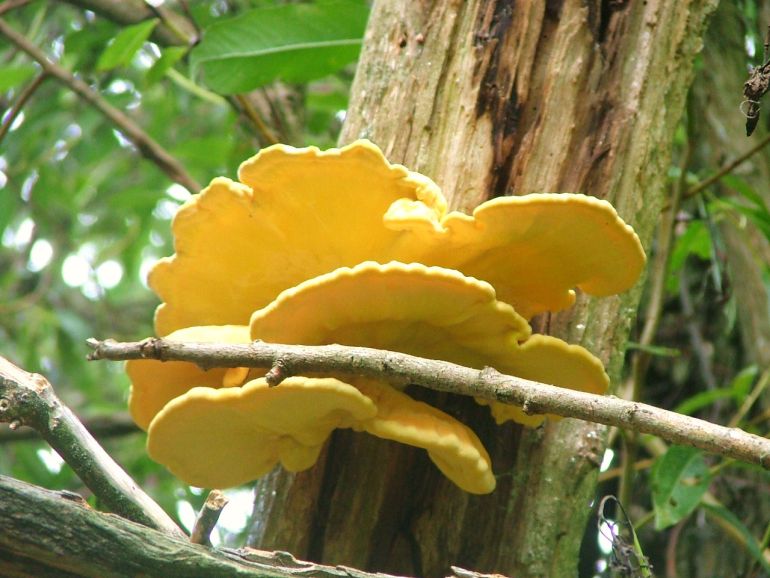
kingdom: Fungi
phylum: Basidiomycota
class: Agaricomycetes
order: Polyporales
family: Laetiporaceae
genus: Laetiporus
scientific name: Laetiporus sulphureus
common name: svovlporesvamp
